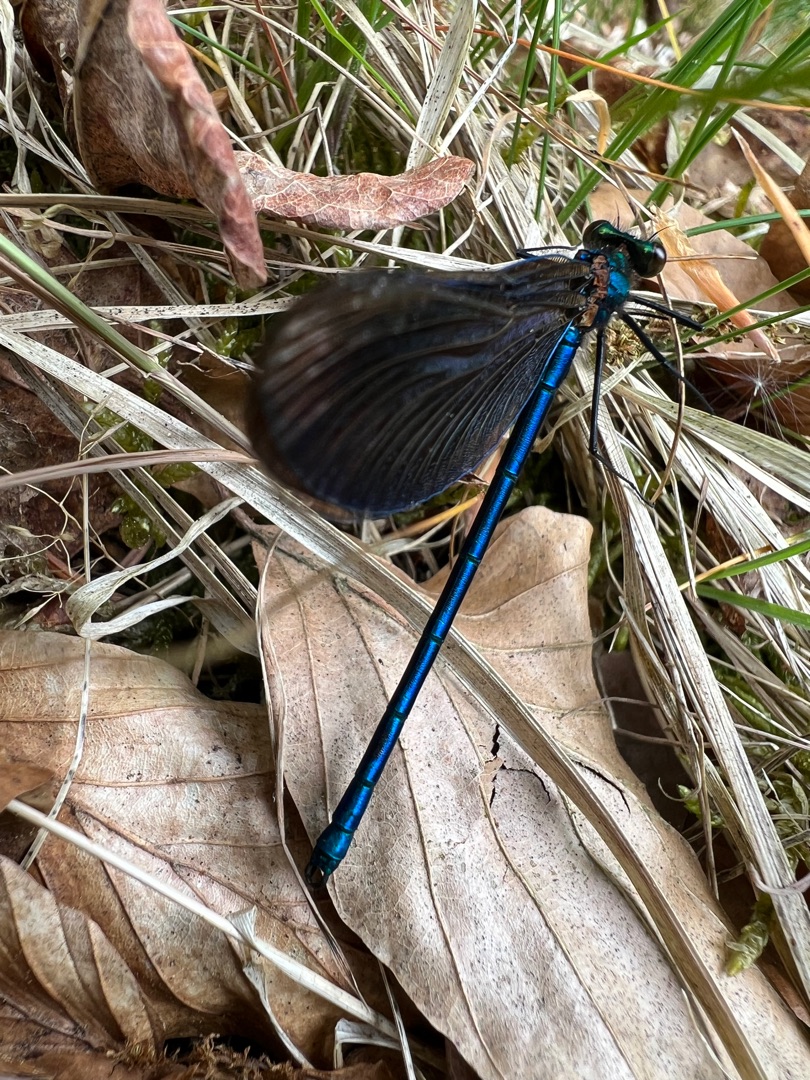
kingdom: Animalia
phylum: Arthropoda
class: Insecta
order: Odonata
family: Calopterygidae
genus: Calopteryx
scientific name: Calopteryx virgo
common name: Blåvinget pragtvandnymfe
